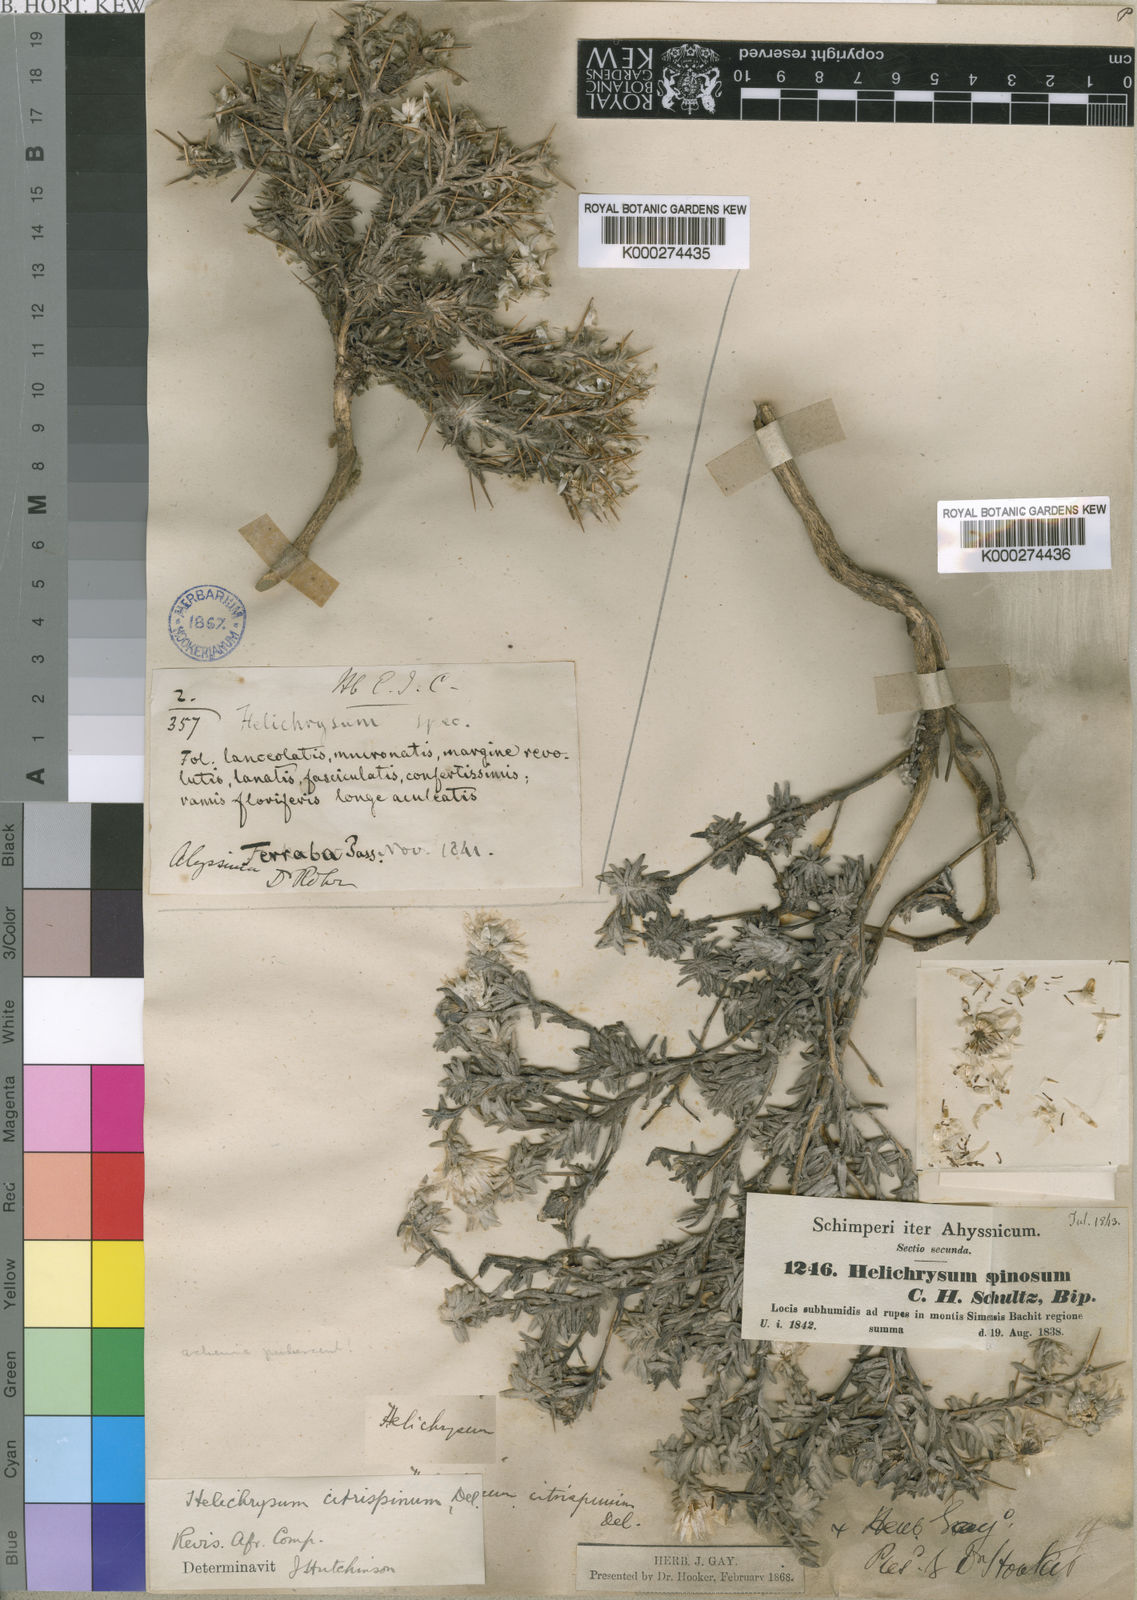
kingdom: Plantae
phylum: Tracheophyta
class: Magnoliopsida
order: Asterales
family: Asteraceae
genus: Helichrysum
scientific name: Helichrysum citrispinum
